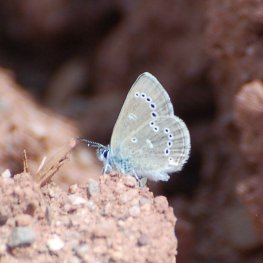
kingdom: Animalia
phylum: Arthropoda
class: Insecta
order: Lepidoptera
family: Lycaenidae
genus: Glaucopsyche
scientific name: Glaucopsyche lygdamus
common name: Silvery Blue
